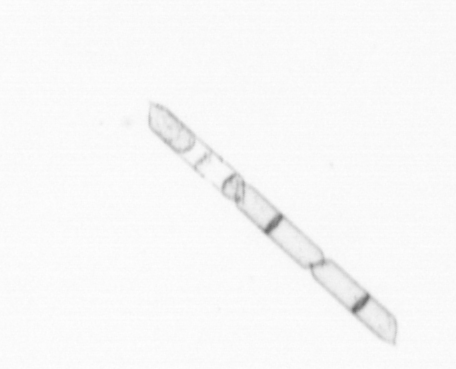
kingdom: Chromista
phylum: Ochrophyta
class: Bacillariophyceae
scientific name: Bacillariophyceae
